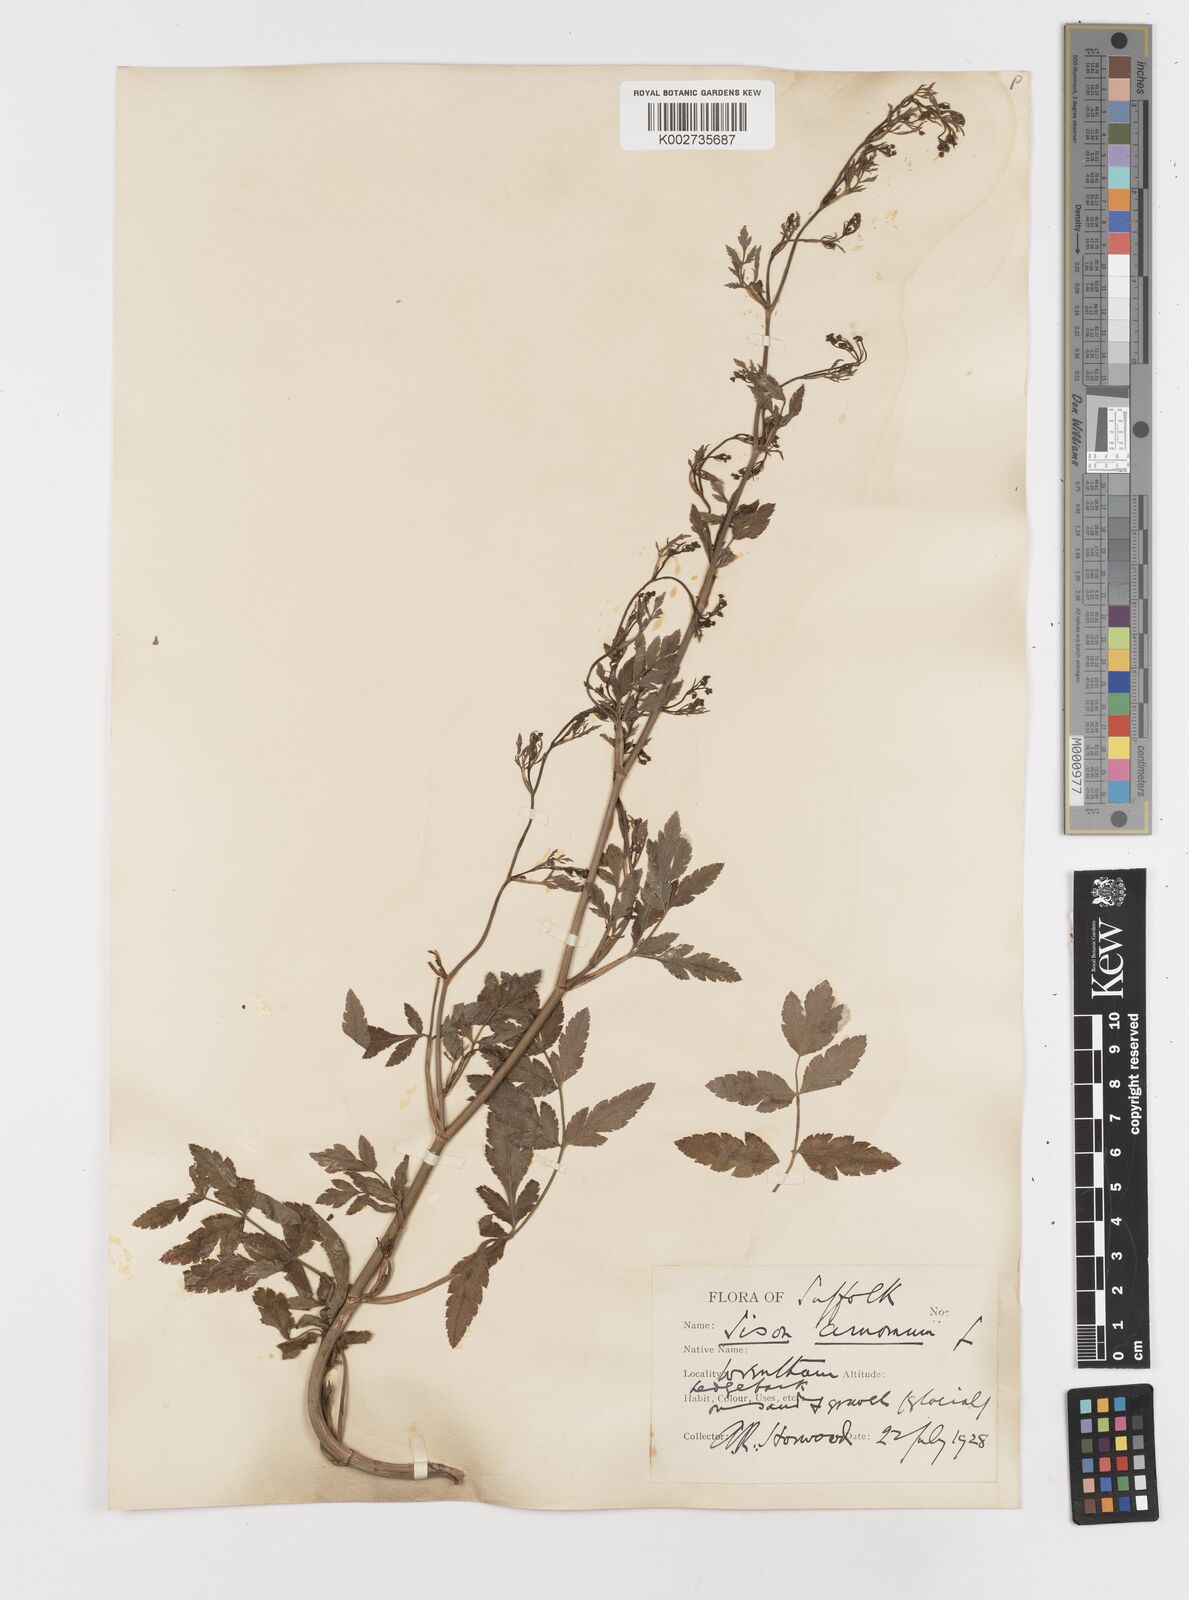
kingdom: Plantae
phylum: Tracheophyta
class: Magnoliopsida
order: Apiales
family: Apiaceae
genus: Sison
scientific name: Sison amomum
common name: Stone-parsley
